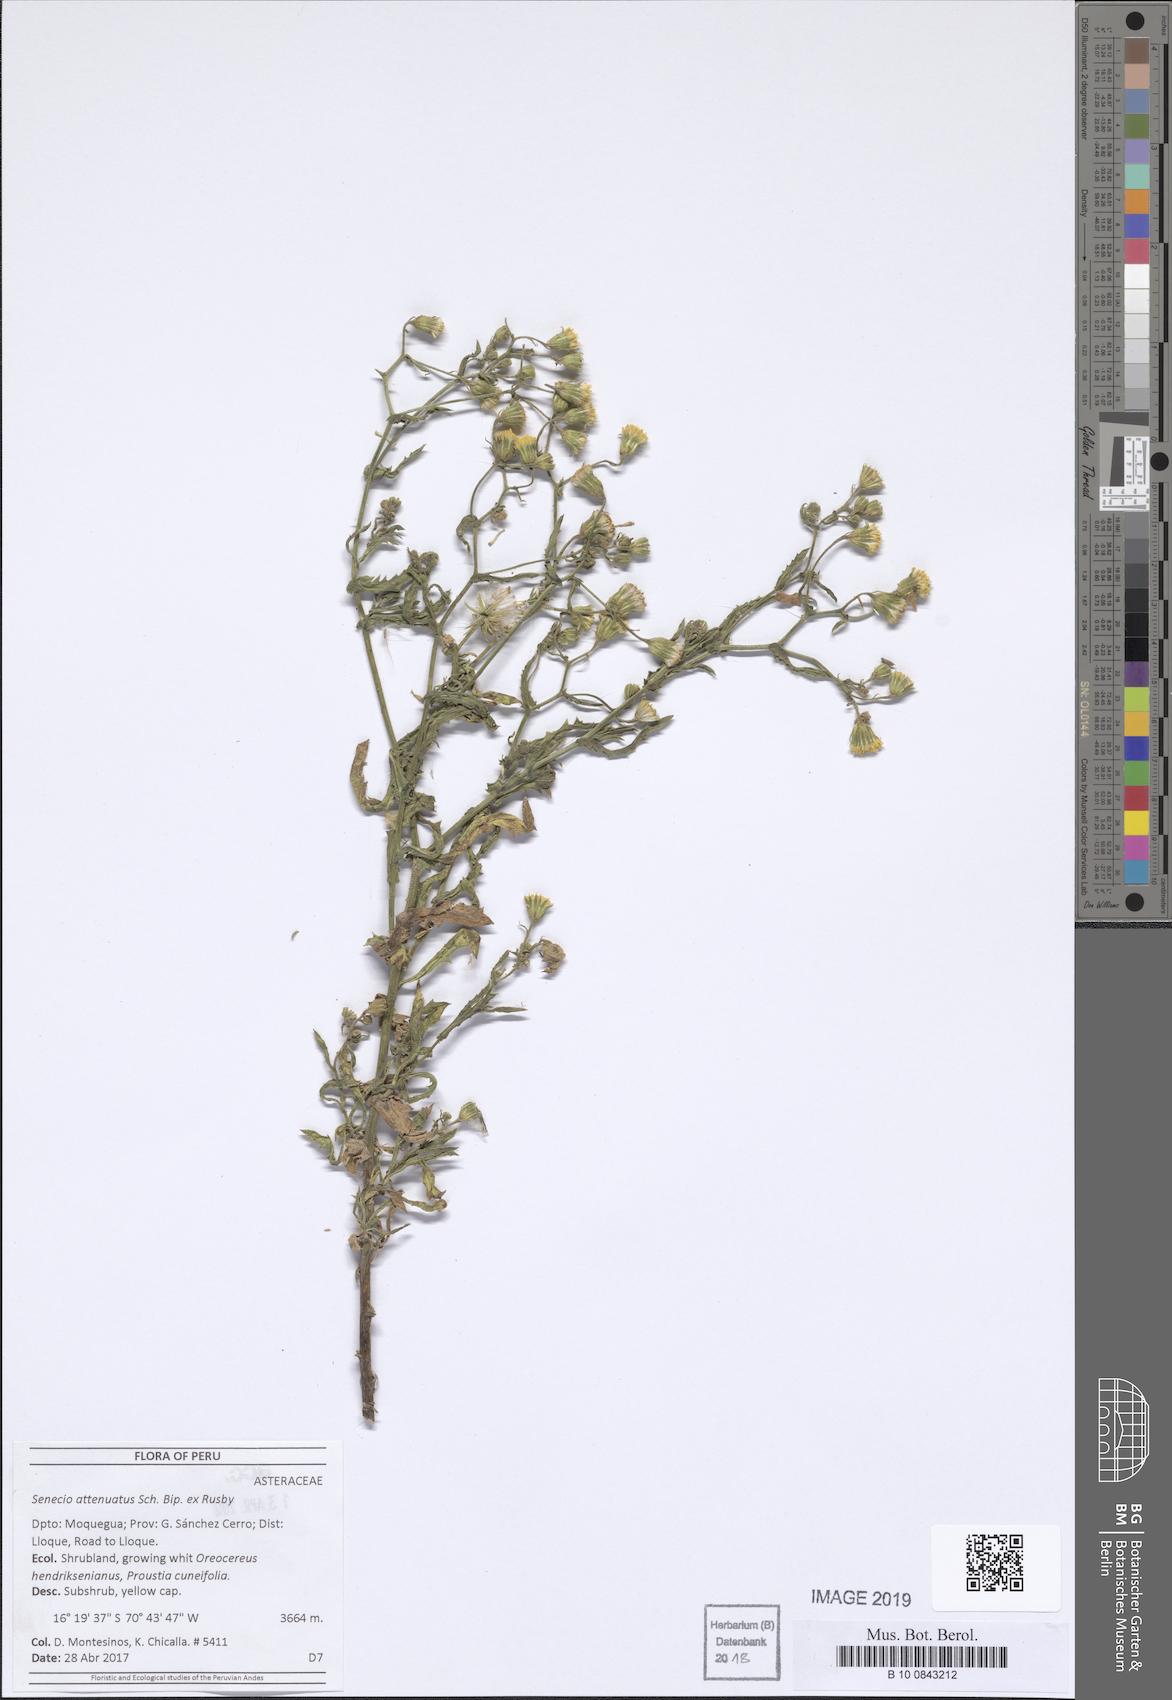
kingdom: Plantae
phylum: Tracheophyta
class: Magnoliopsida
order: Asterales
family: Asteraceae
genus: Senecio
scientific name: Senecio attenuatus
